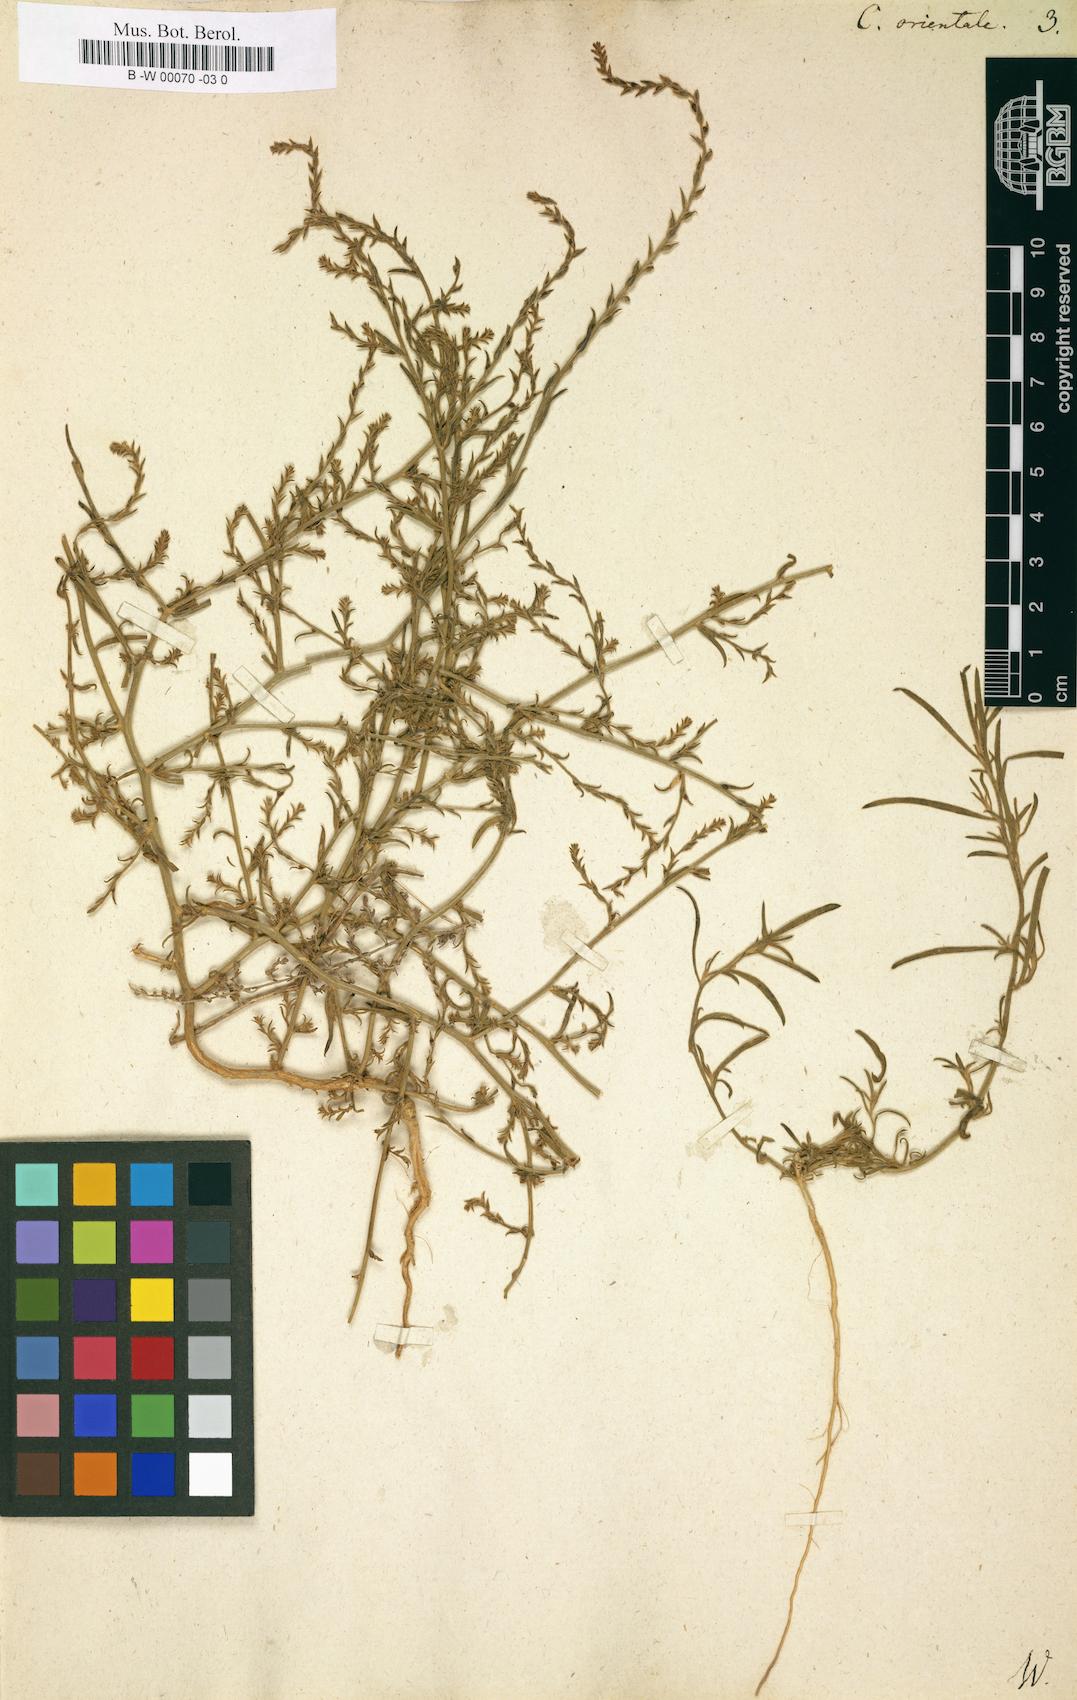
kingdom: Plantae
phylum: Tracheophyta
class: Magnoliopsida
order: Caryophyllales
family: Amaranthaceae
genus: Corispermum
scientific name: Corispermum aralocaspicum
